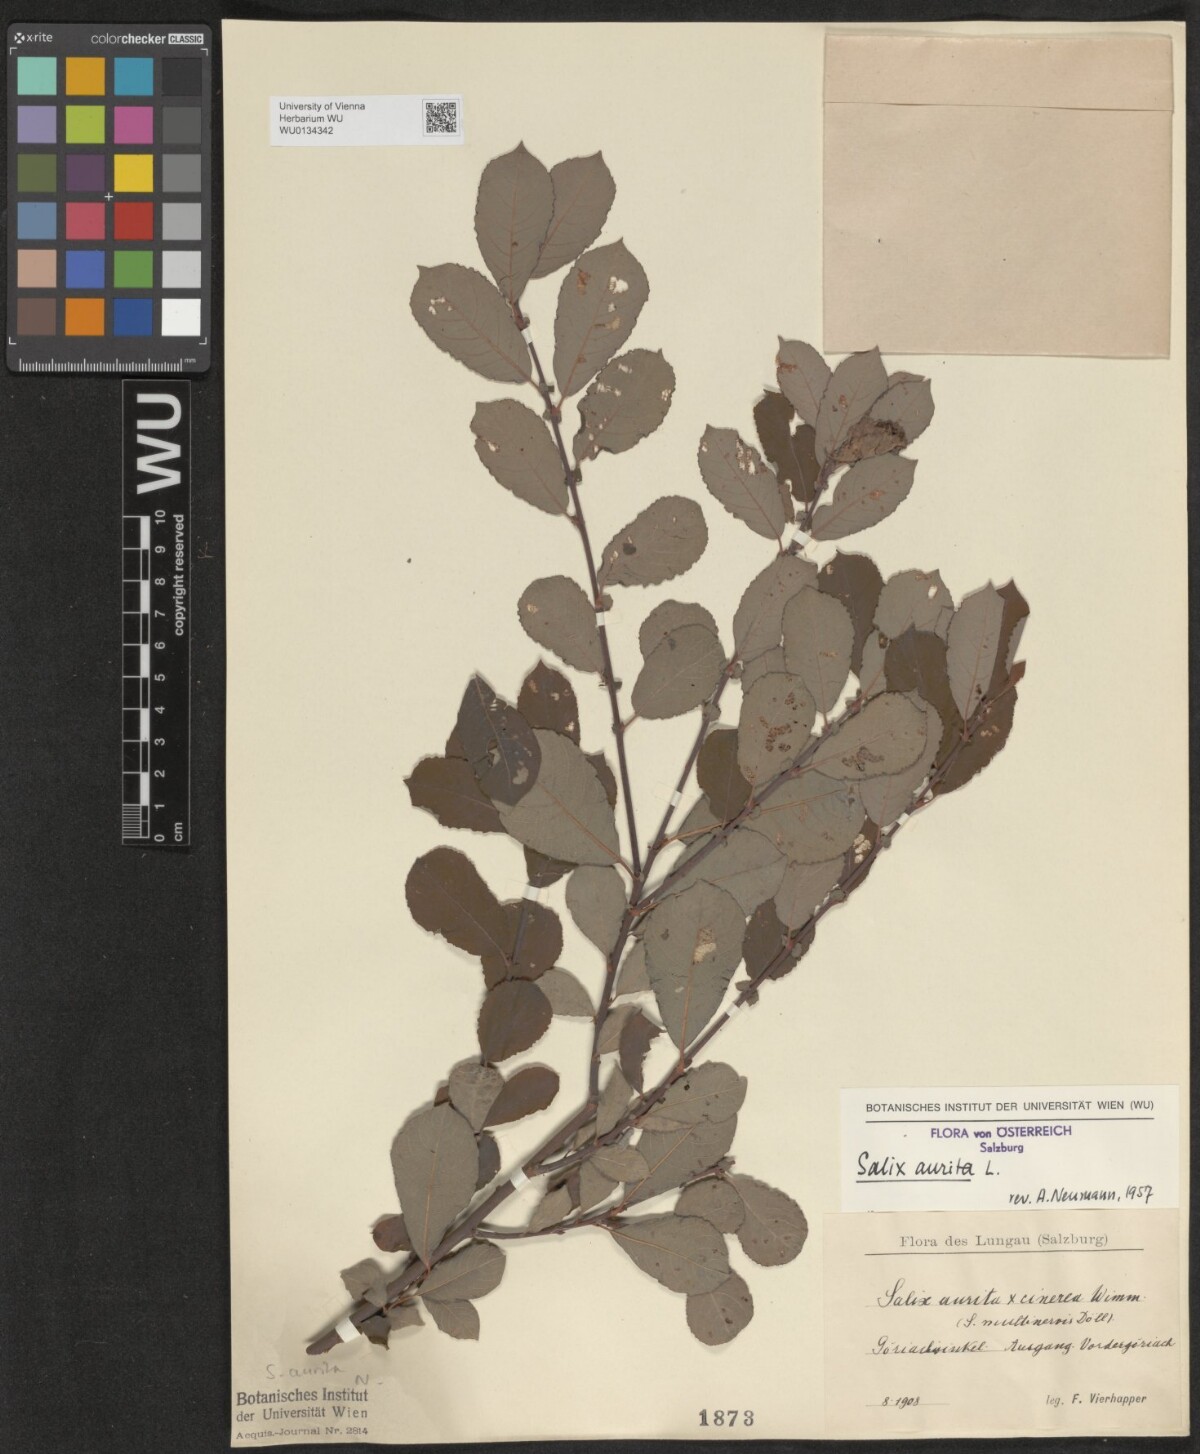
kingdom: Plantae
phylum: Tracheophyta
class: Magnoliopsida
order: Malpighiales
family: Salicaceae
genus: Salix
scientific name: Salix aurita
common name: Eared willow
